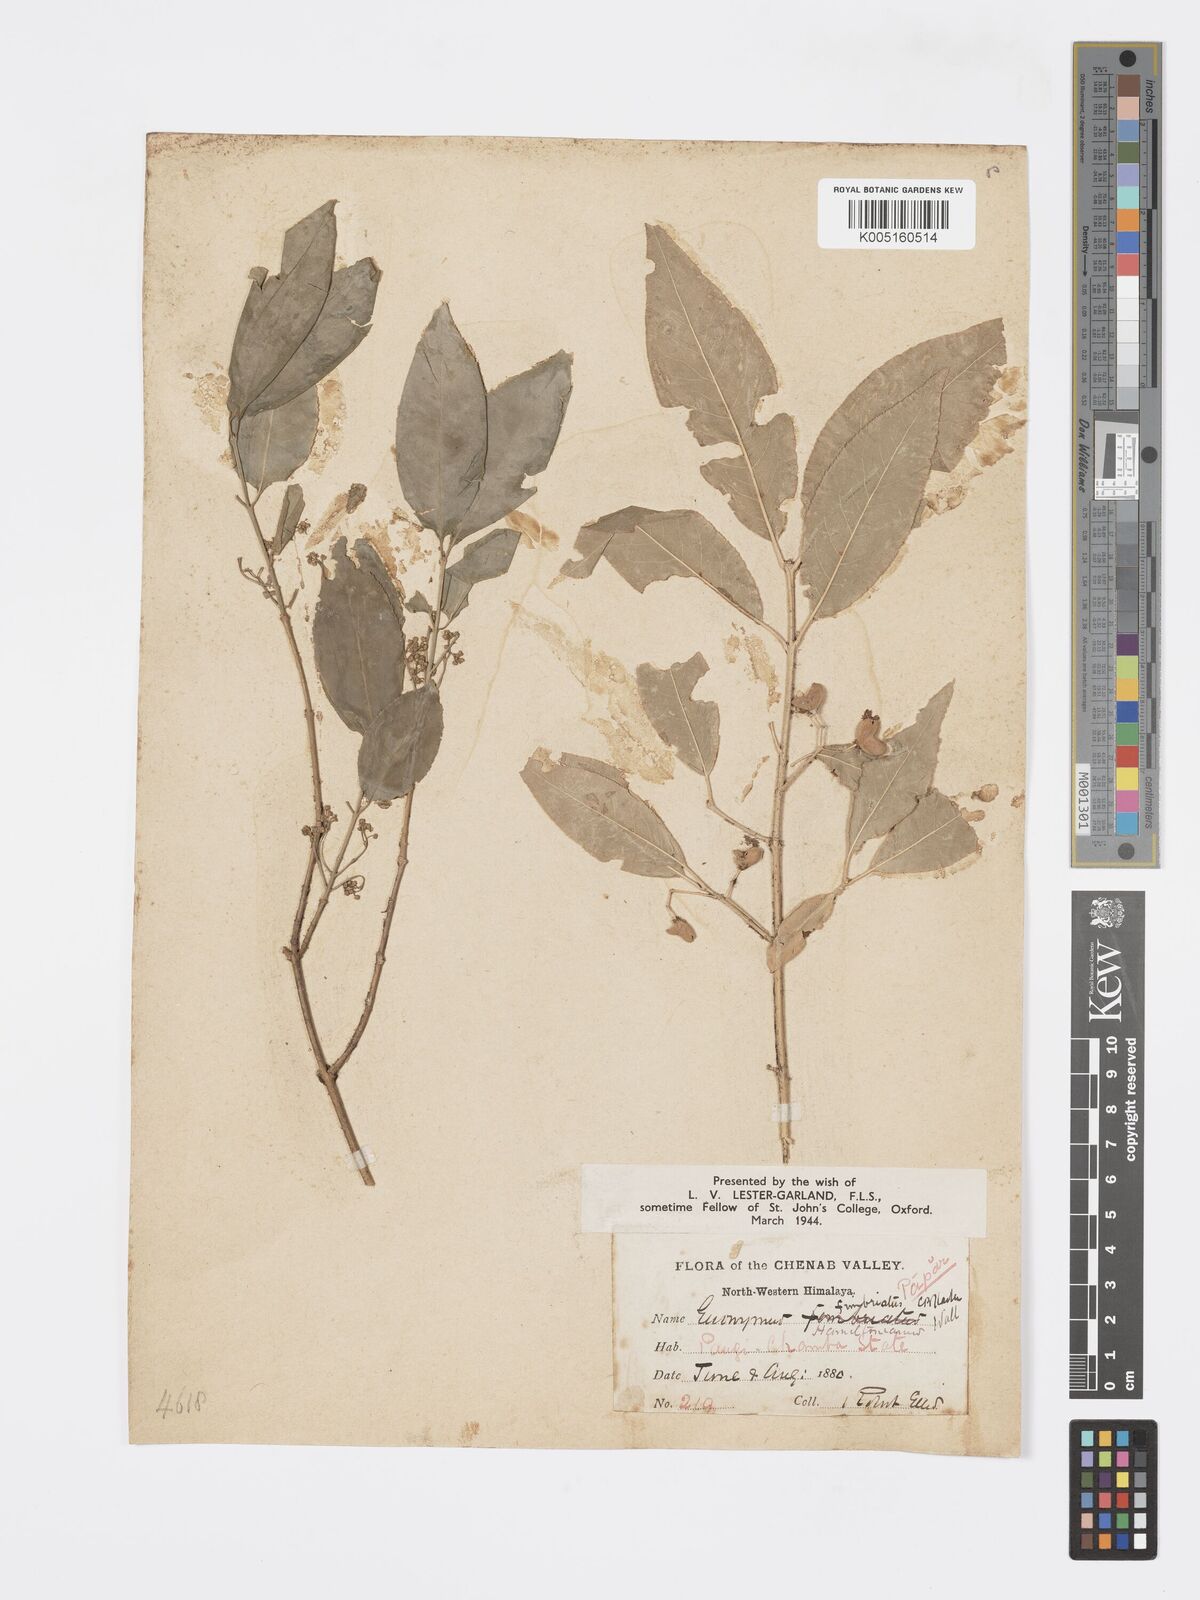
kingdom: Plantae
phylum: Tracheophyta
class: Magnoliopsida
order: Celastrales
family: Celastraceae
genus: Euonymus
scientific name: Euonymus
